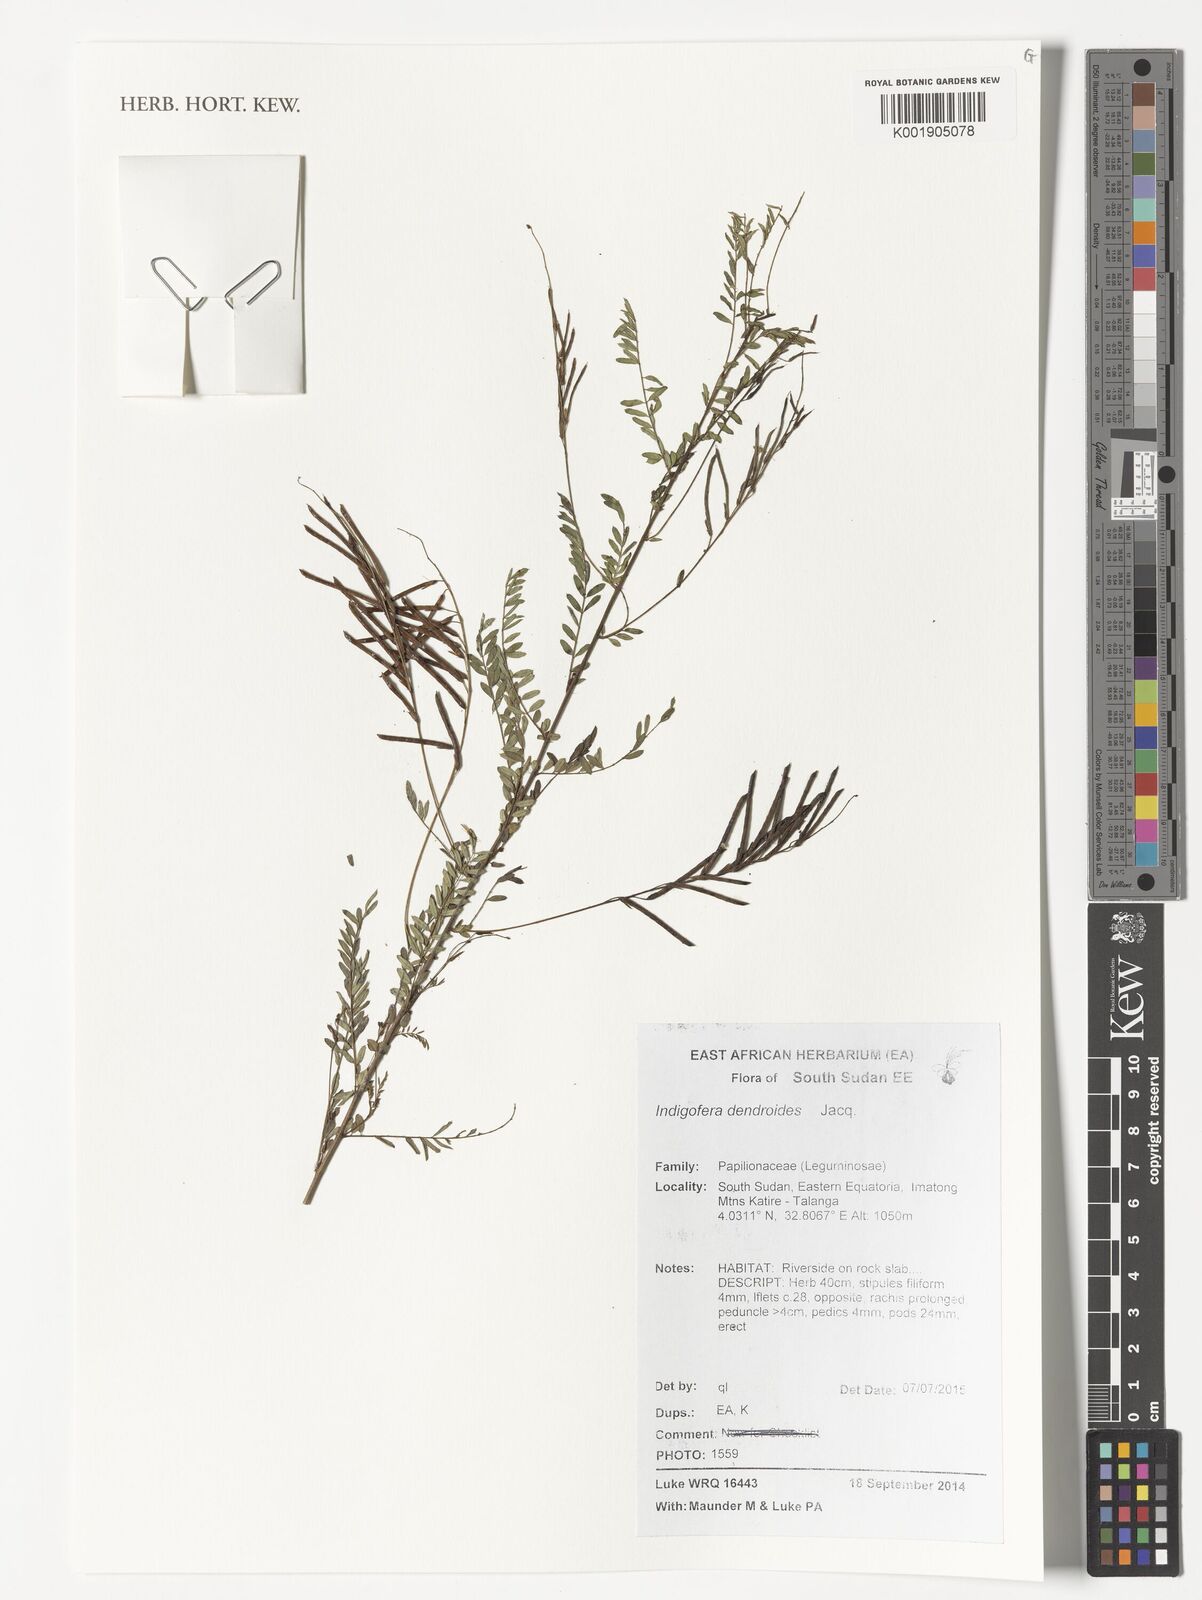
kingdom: Plantae
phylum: Tracheophyta
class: Magnoliopsida
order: Fabales
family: Fabaceae
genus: Indigofera
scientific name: Indigofera dendroides
